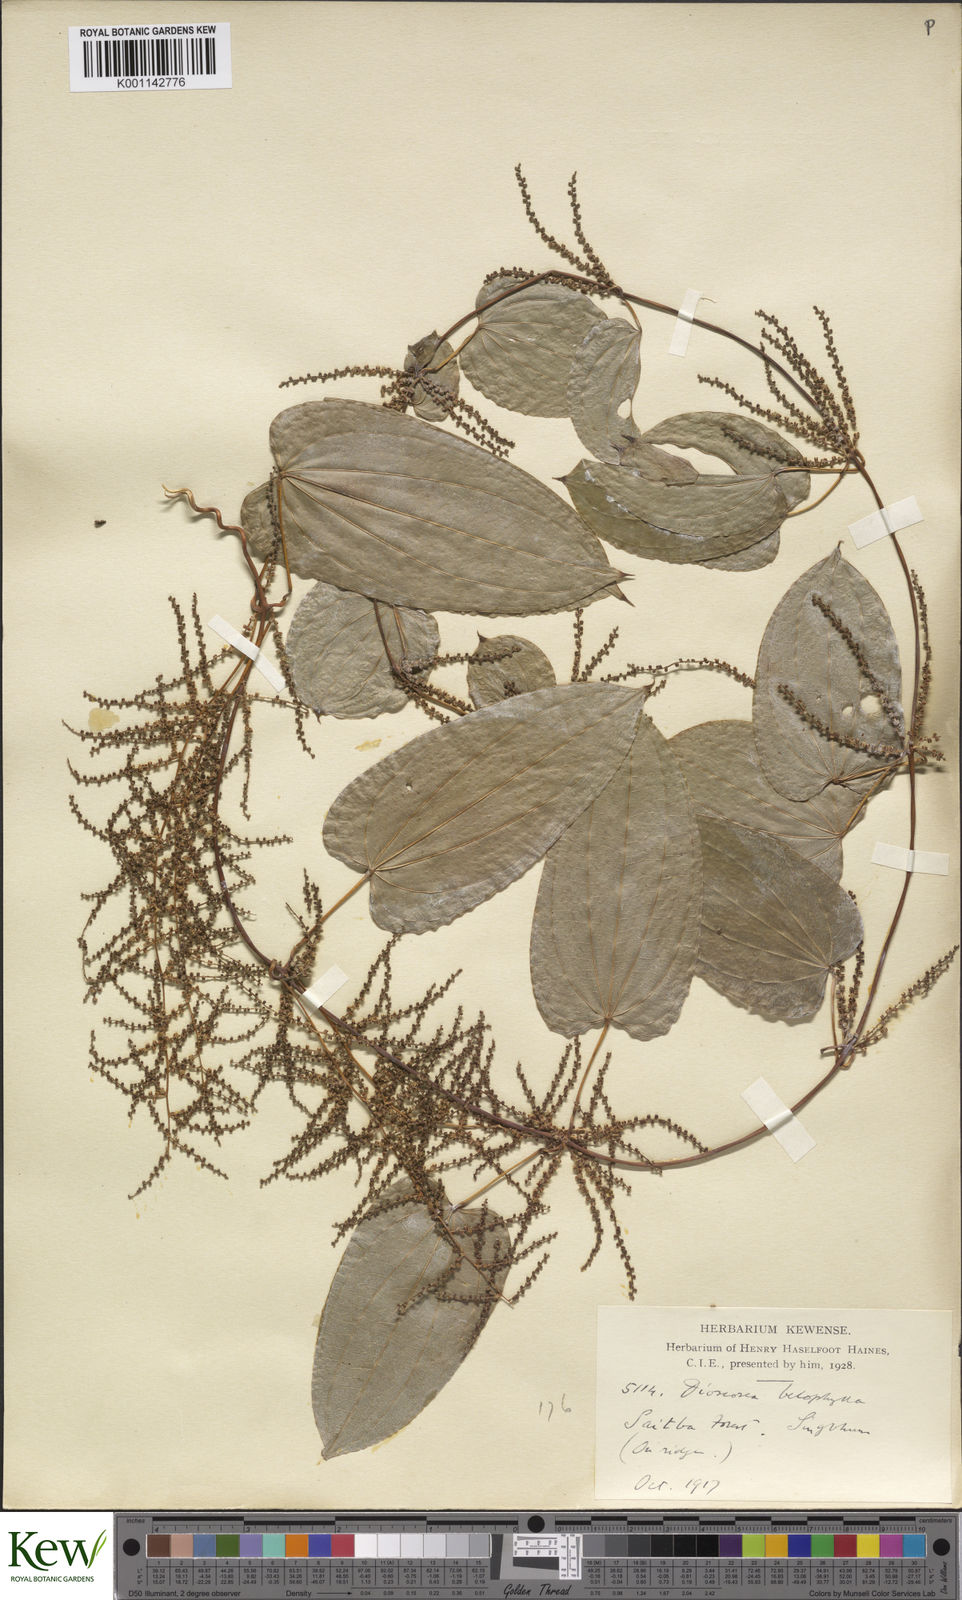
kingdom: Plantae
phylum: Tracheophyta
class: Liliopsida
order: Dioscoreales
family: Dioscoreaceae
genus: Dioscorea
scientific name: Dioscorea belophylla
